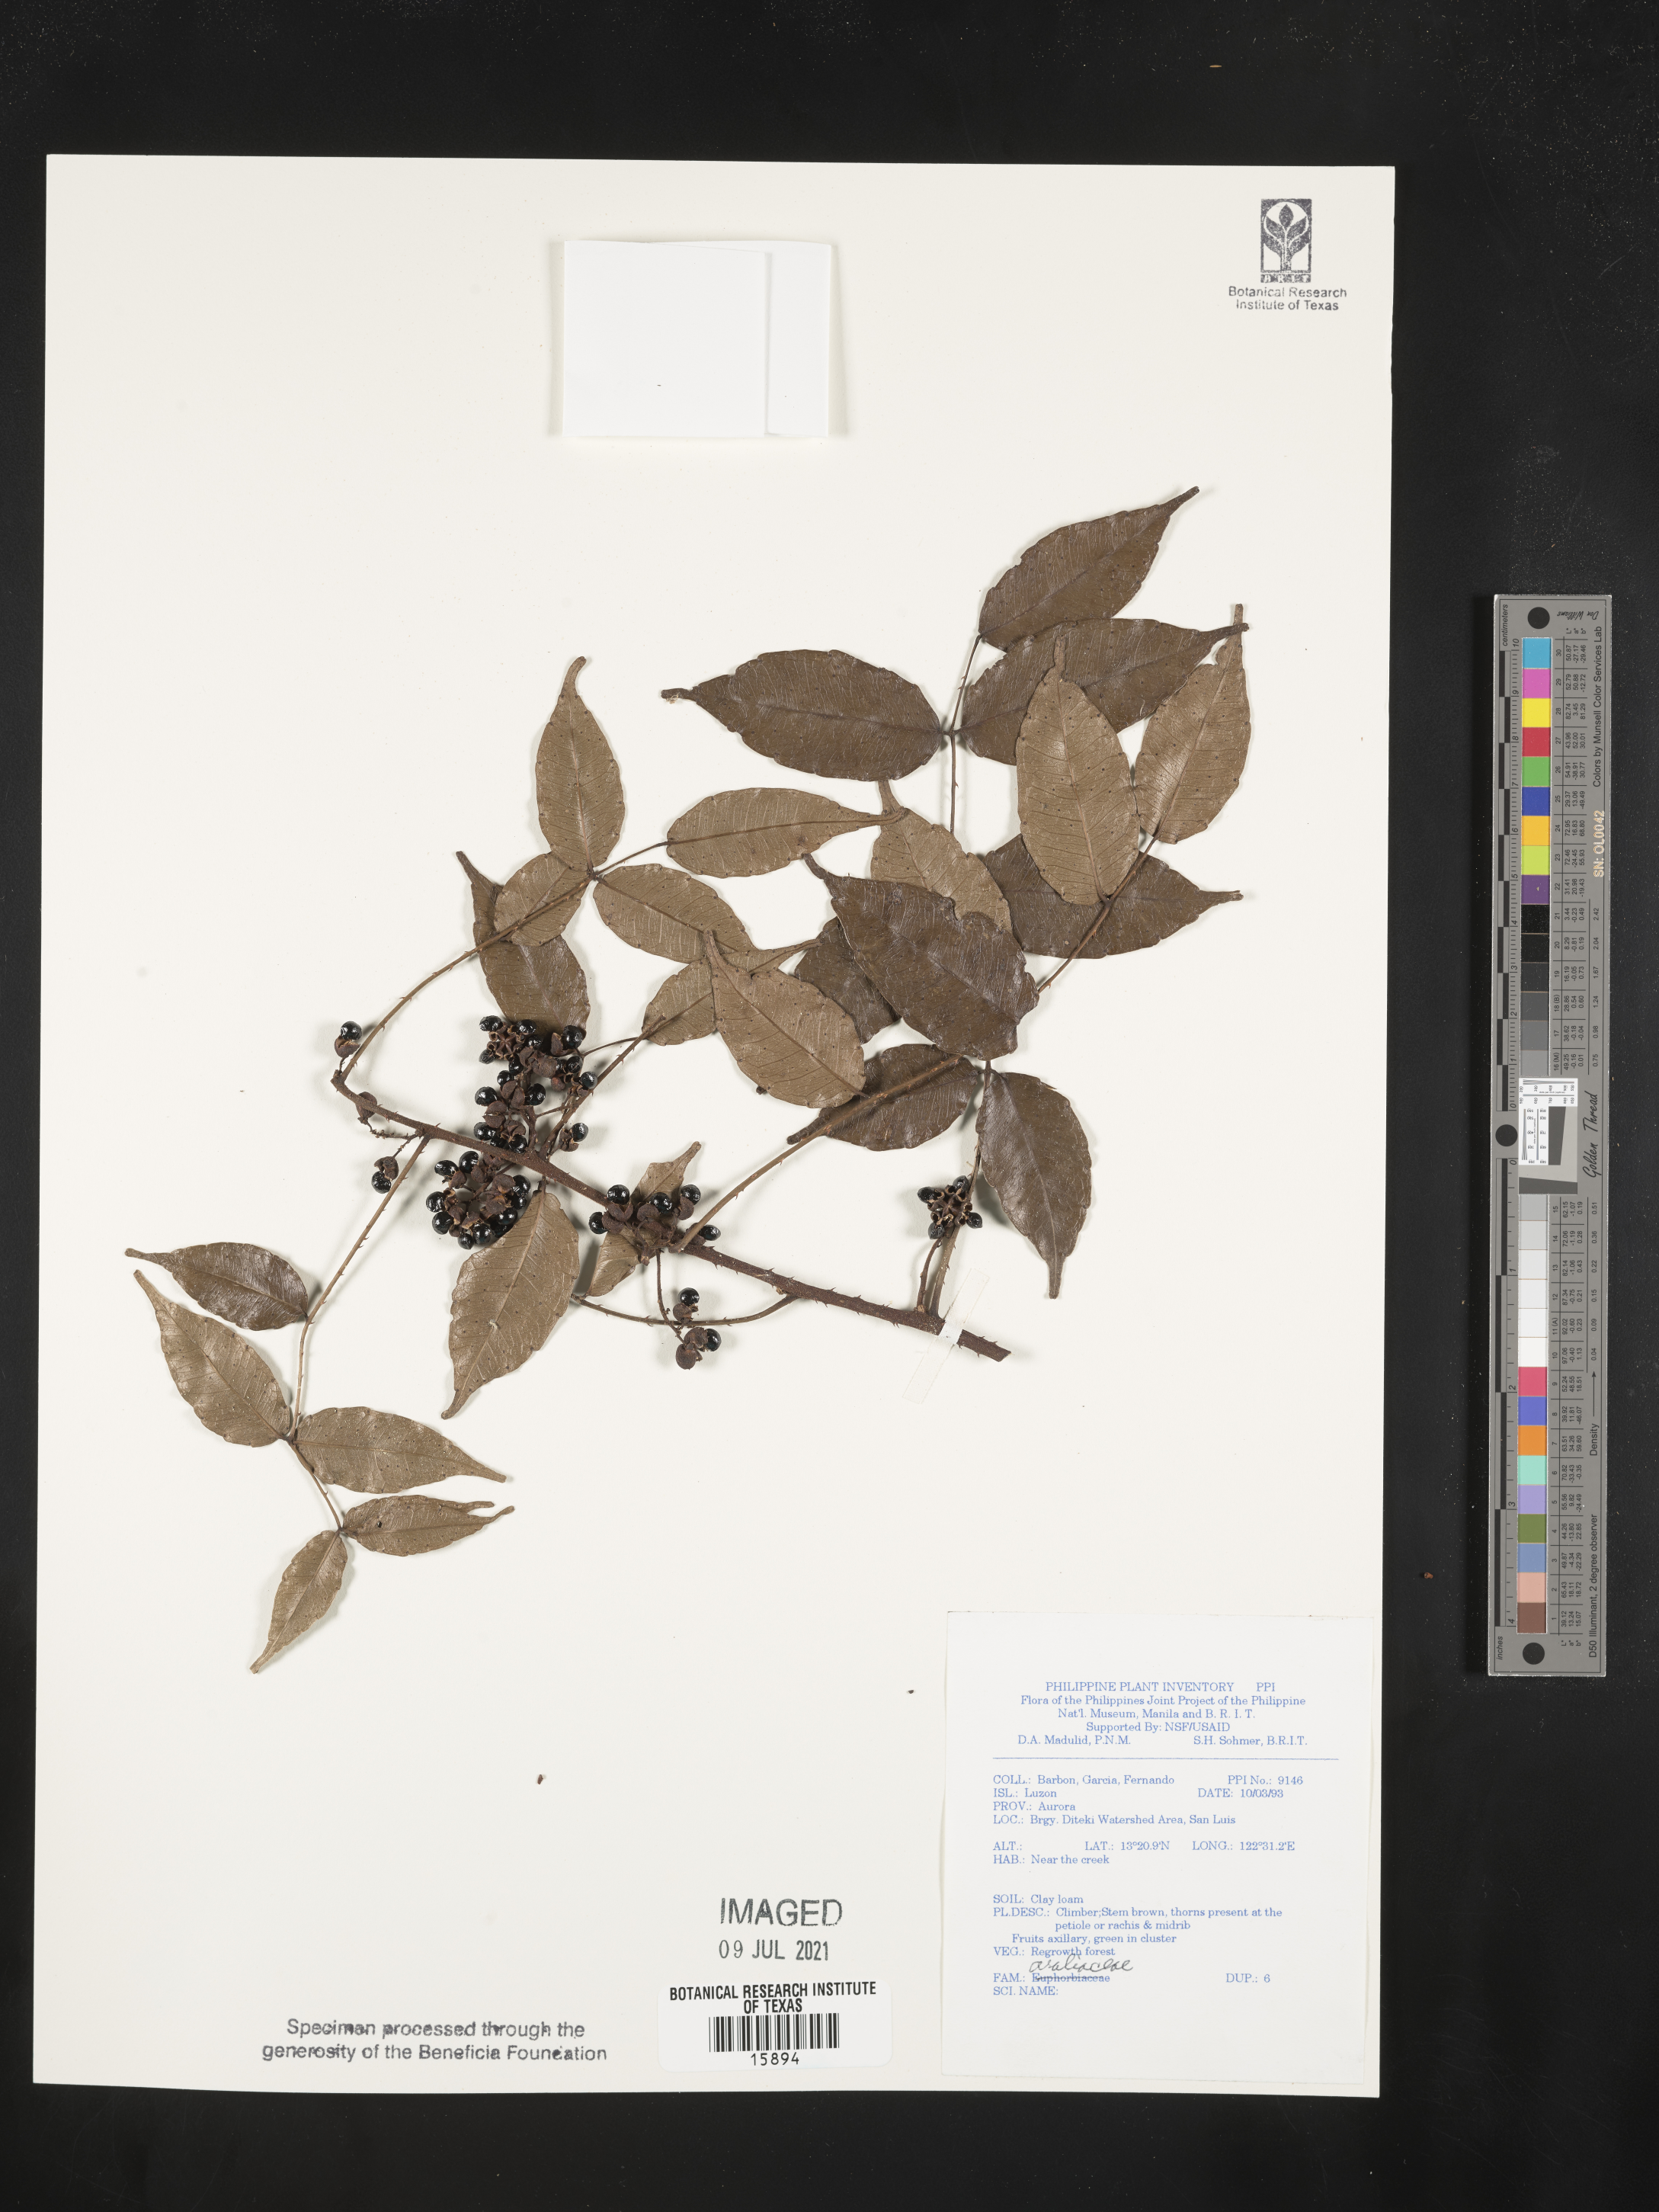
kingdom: Plantae
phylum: Tracheophyta
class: Magnoliopsida
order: Apiales
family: Araliaceae
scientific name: Araliaceae
